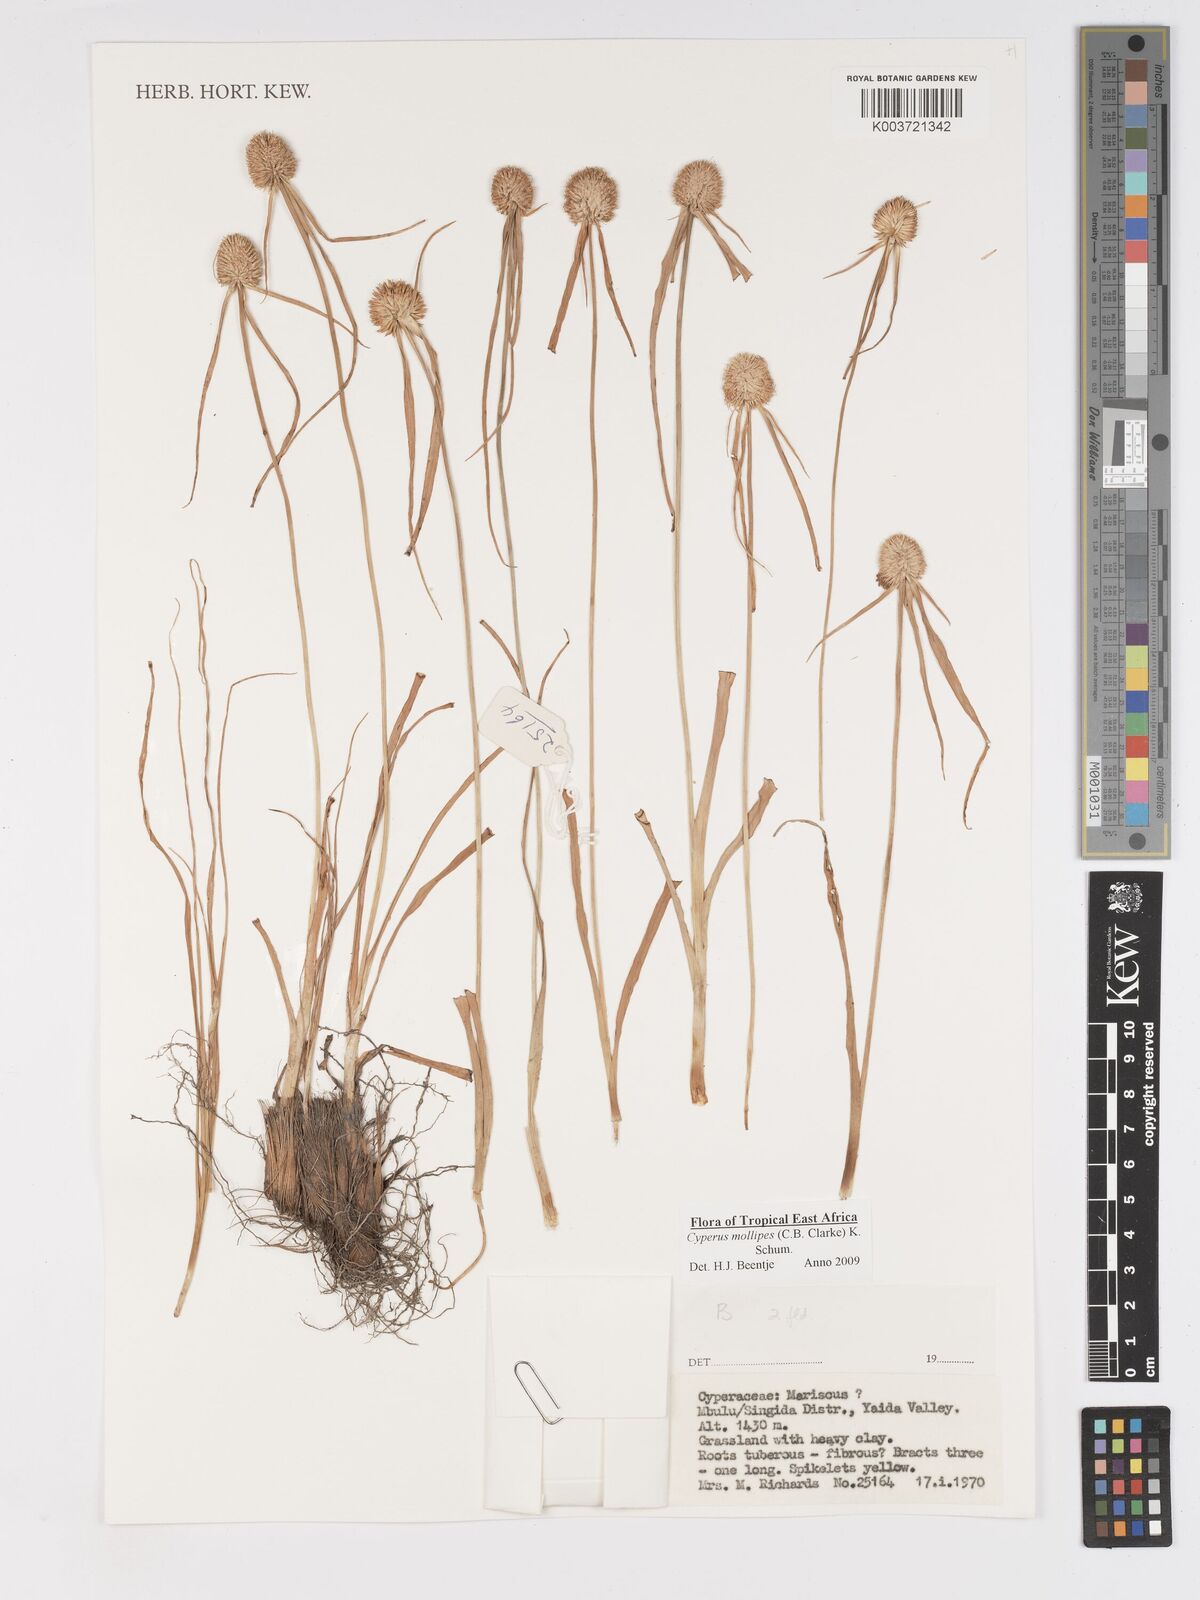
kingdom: Plantae
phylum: Tracheophyta
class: Liliopsida
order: Poales
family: Cyperaceae
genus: Cyperus
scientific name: Cyperus mollipes
